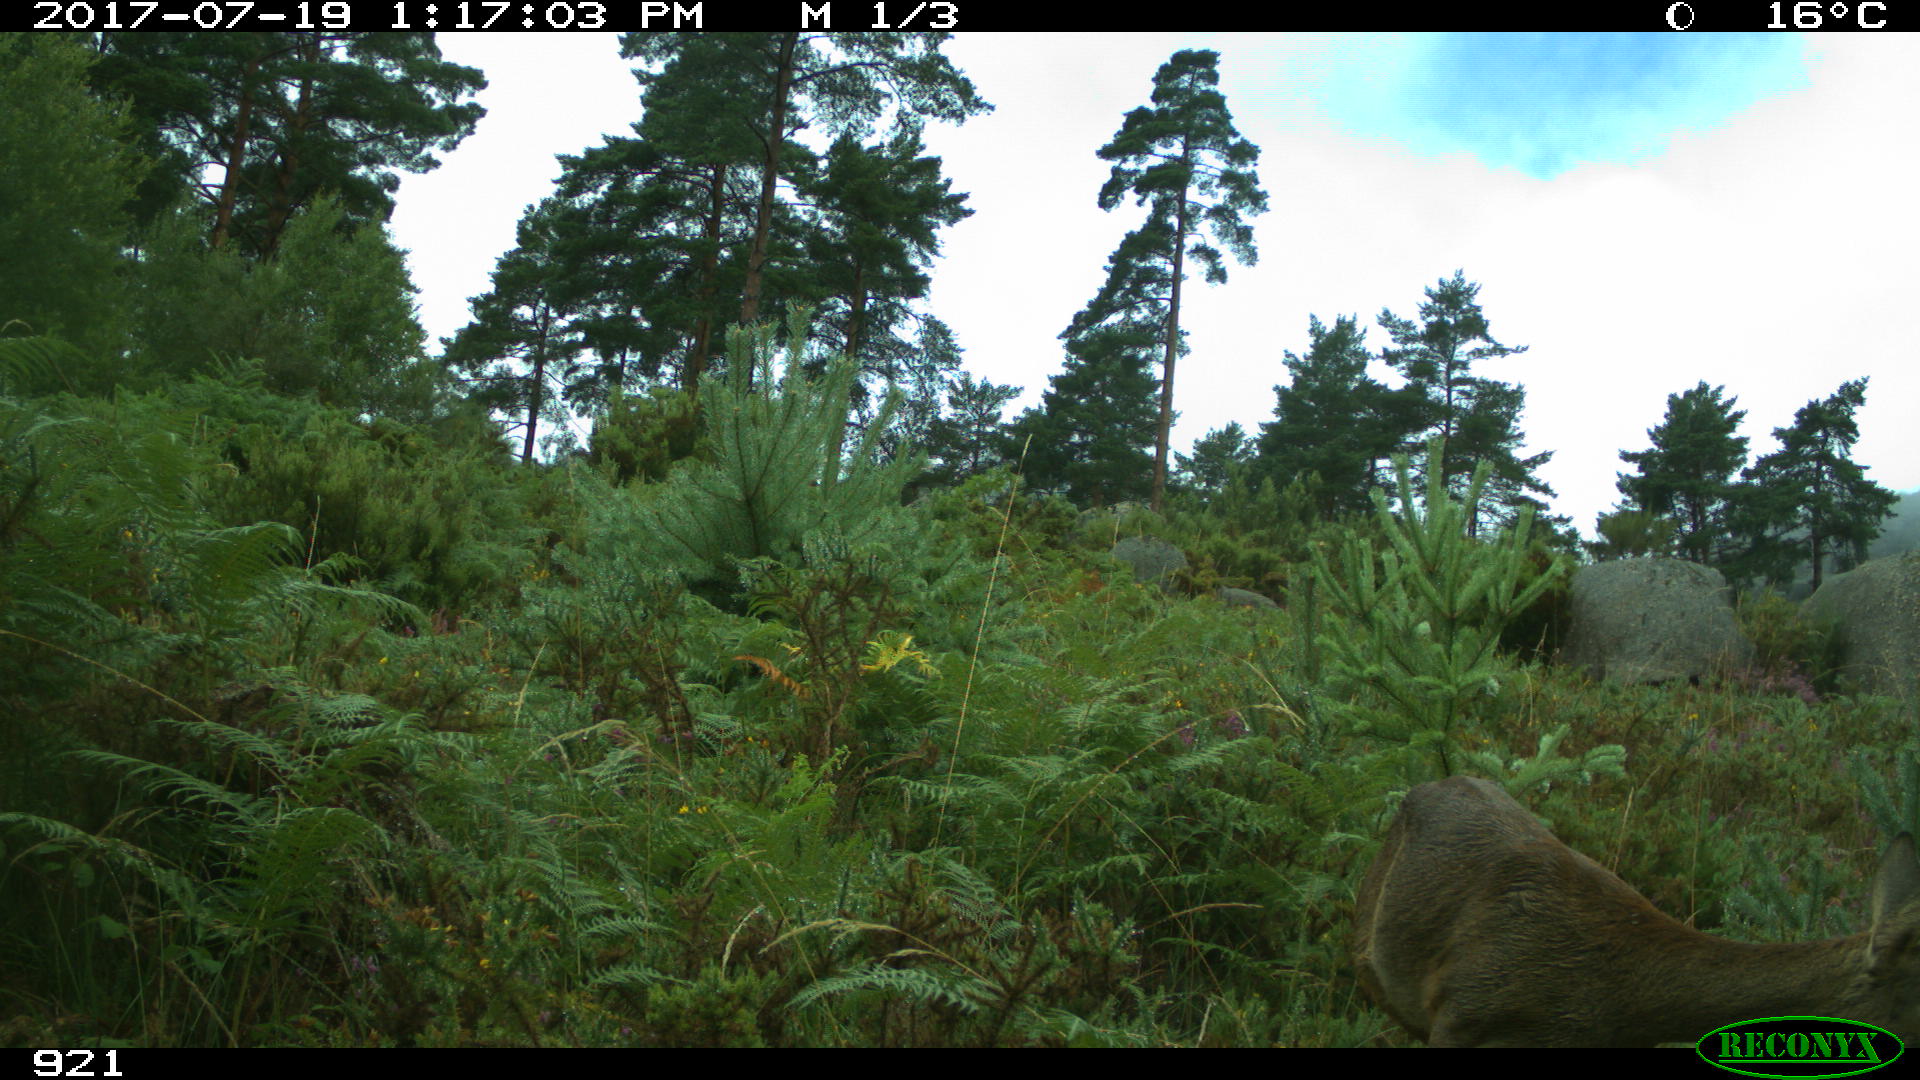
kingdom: Animalia
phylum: Chordata
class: Mammalia
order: Artiodactyla
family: Cervidae
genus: Capreolus
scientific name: Capreolus capreolus
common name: Western roe deer
